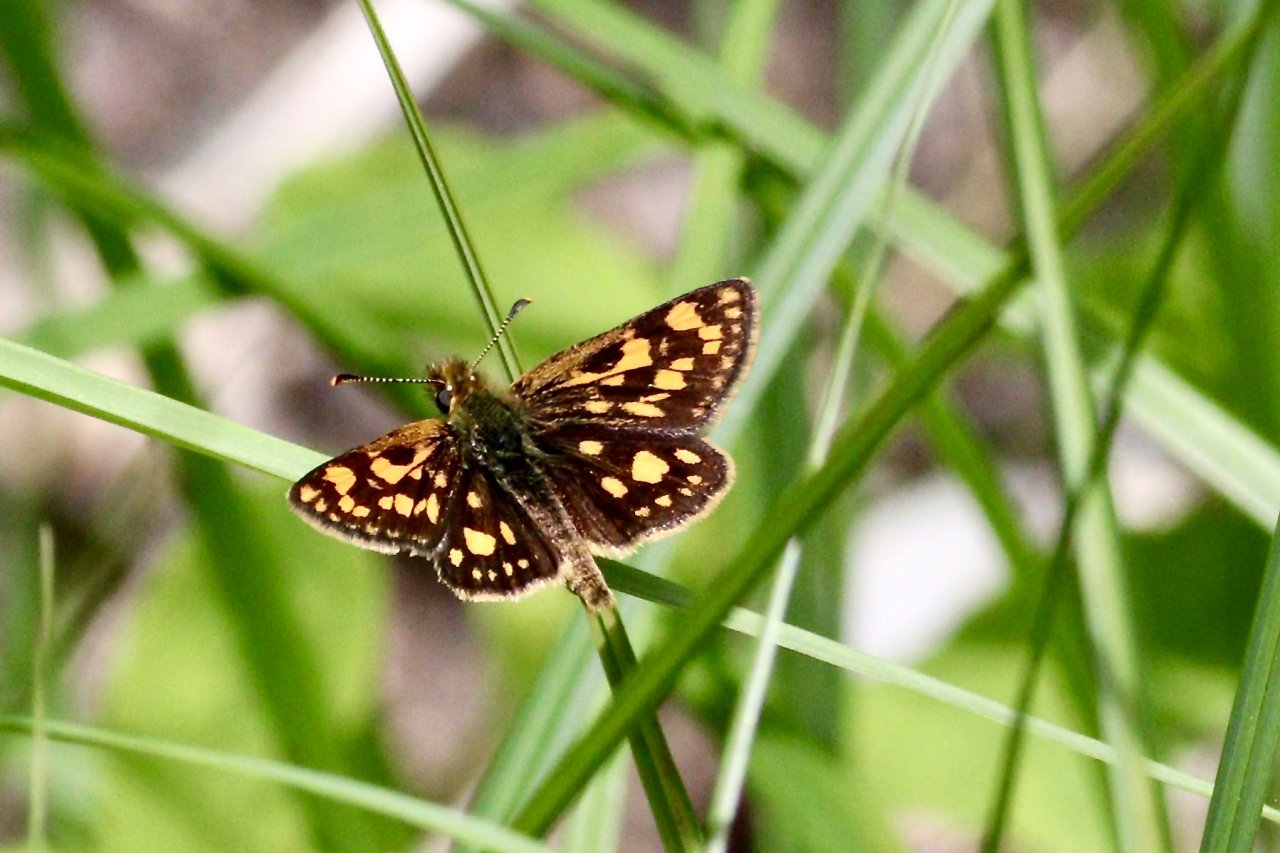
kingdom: Animalia
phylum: Arthropoda
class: Insecta
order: Lepidoptera
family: Hesperiidae
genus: Carterocephalus
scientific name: Carterocephalus palaemon
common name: Chequered Skipper
